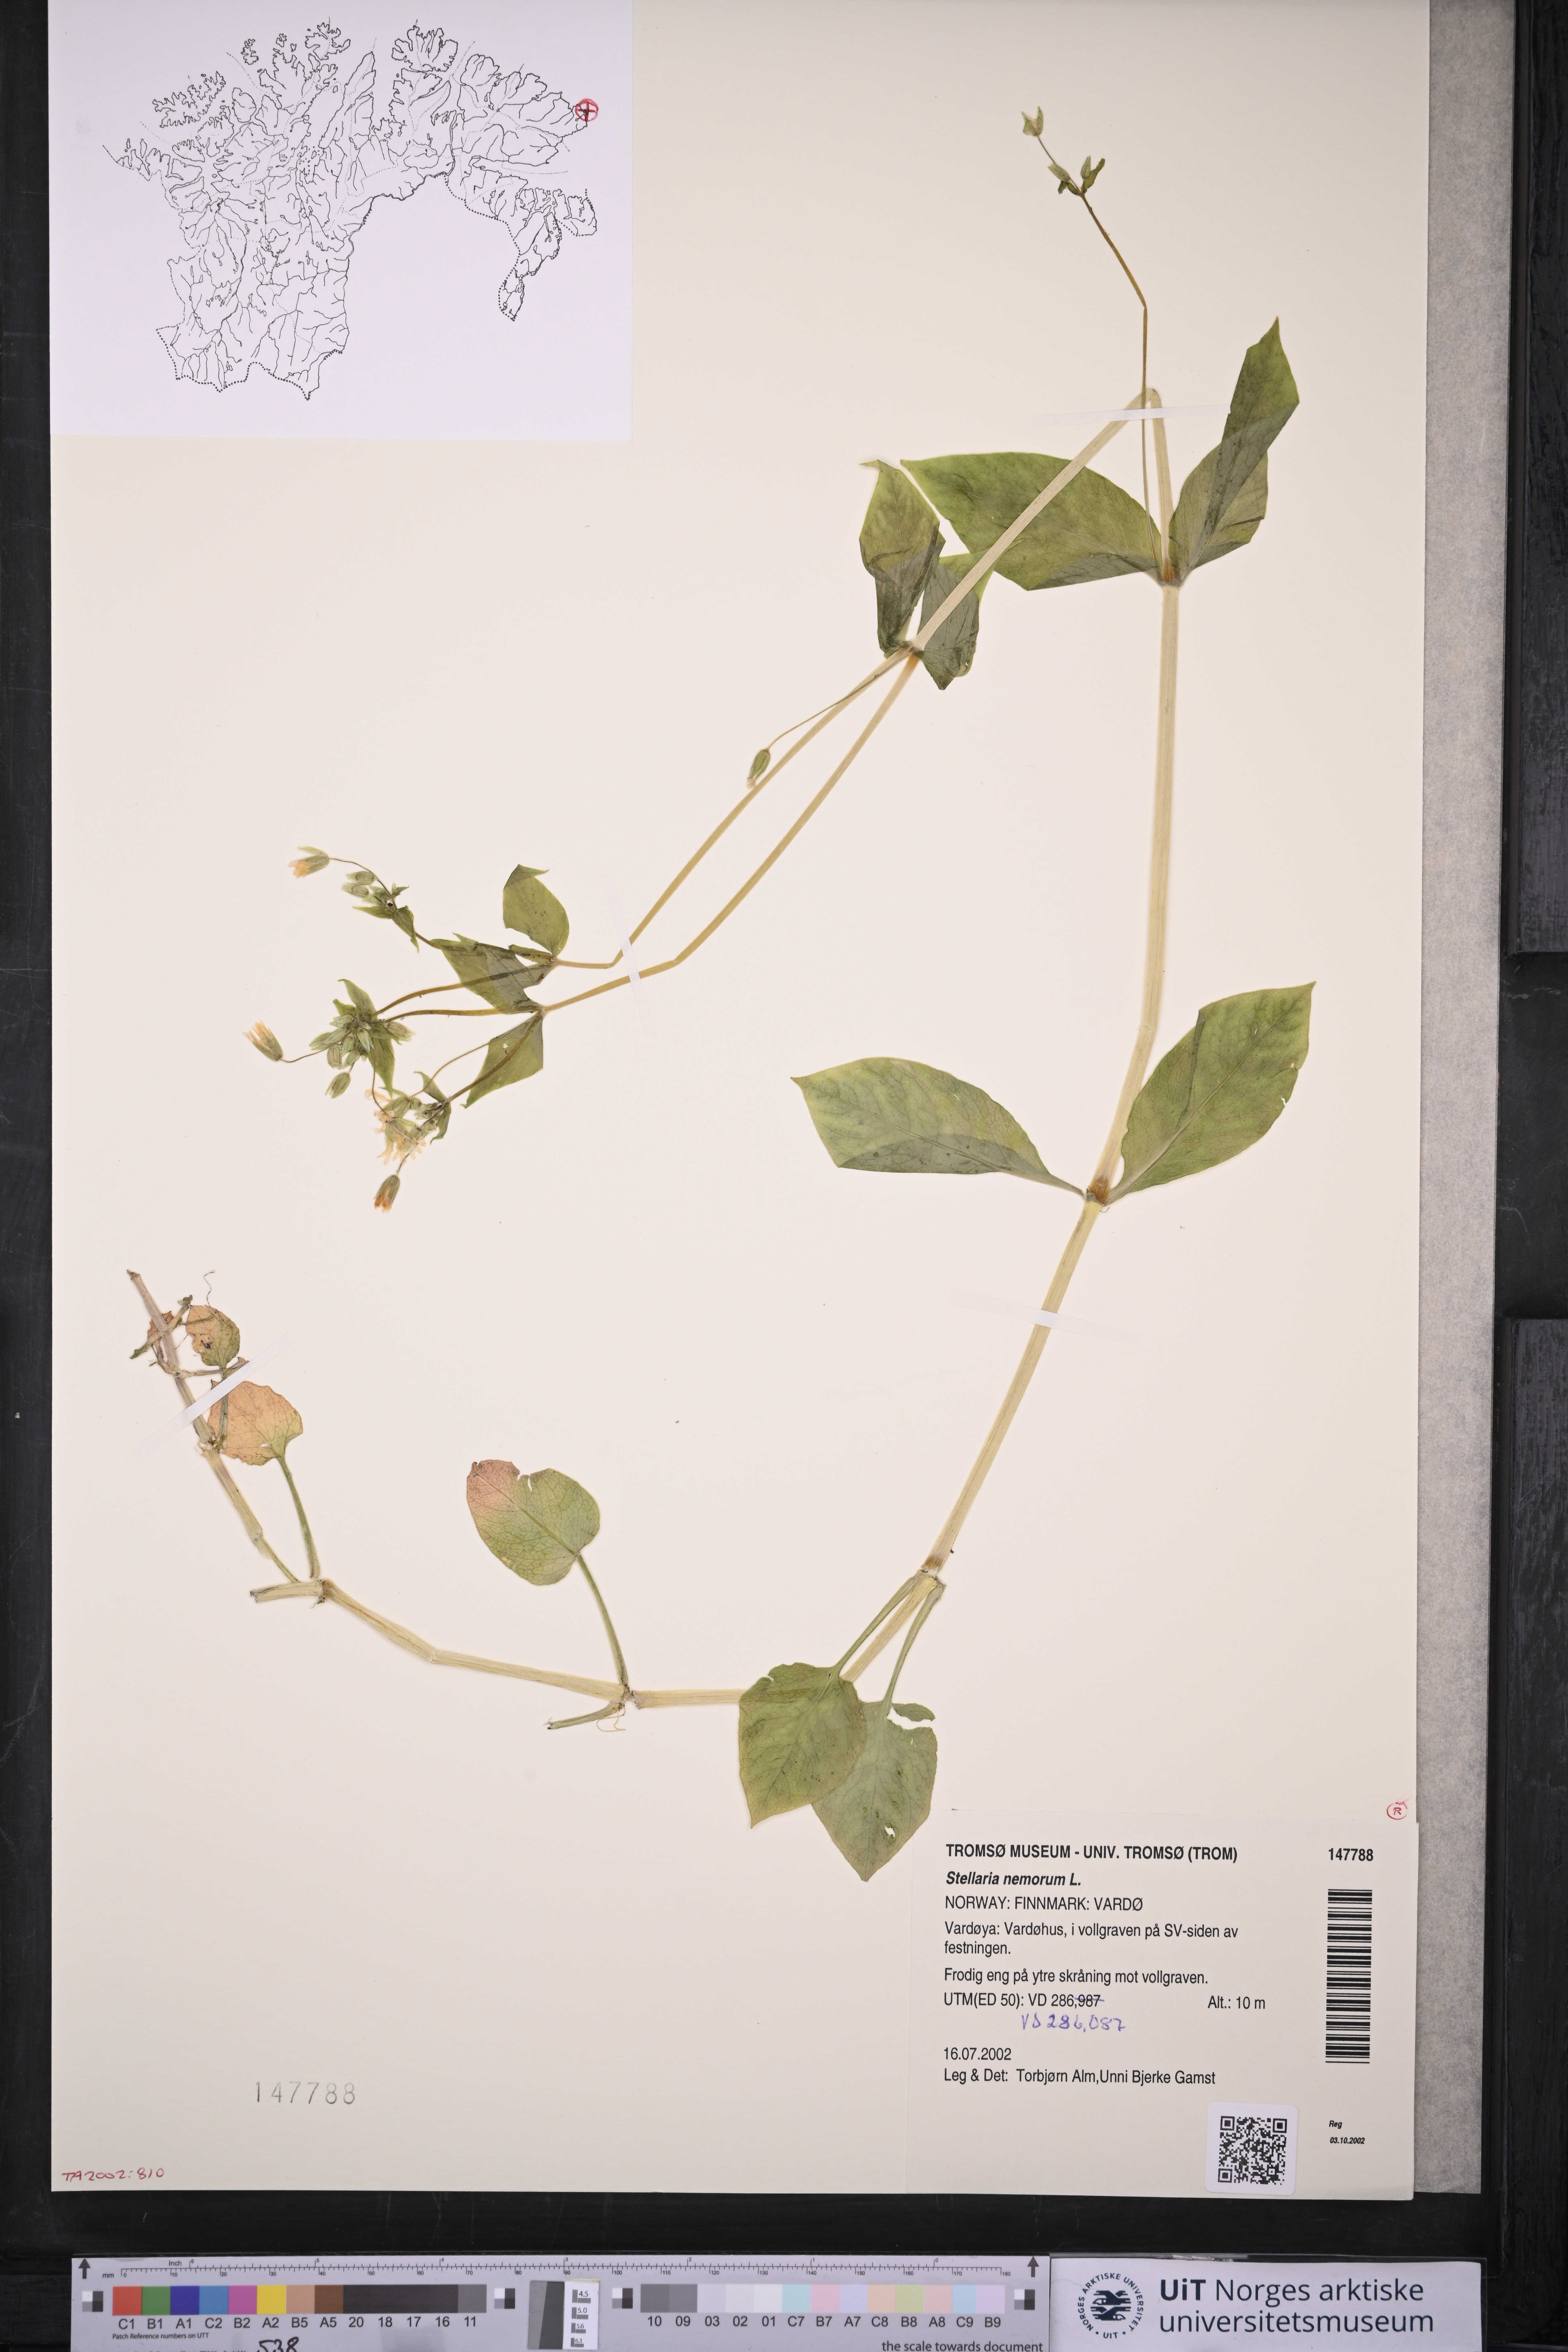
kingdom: Plantae
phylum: Tracheophyta
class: Magnoliopsida
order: Caryophyllales
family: Caryophyllaceae
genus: Stellaria
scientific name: Stellaria nemorum
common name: Wood stitchwort
